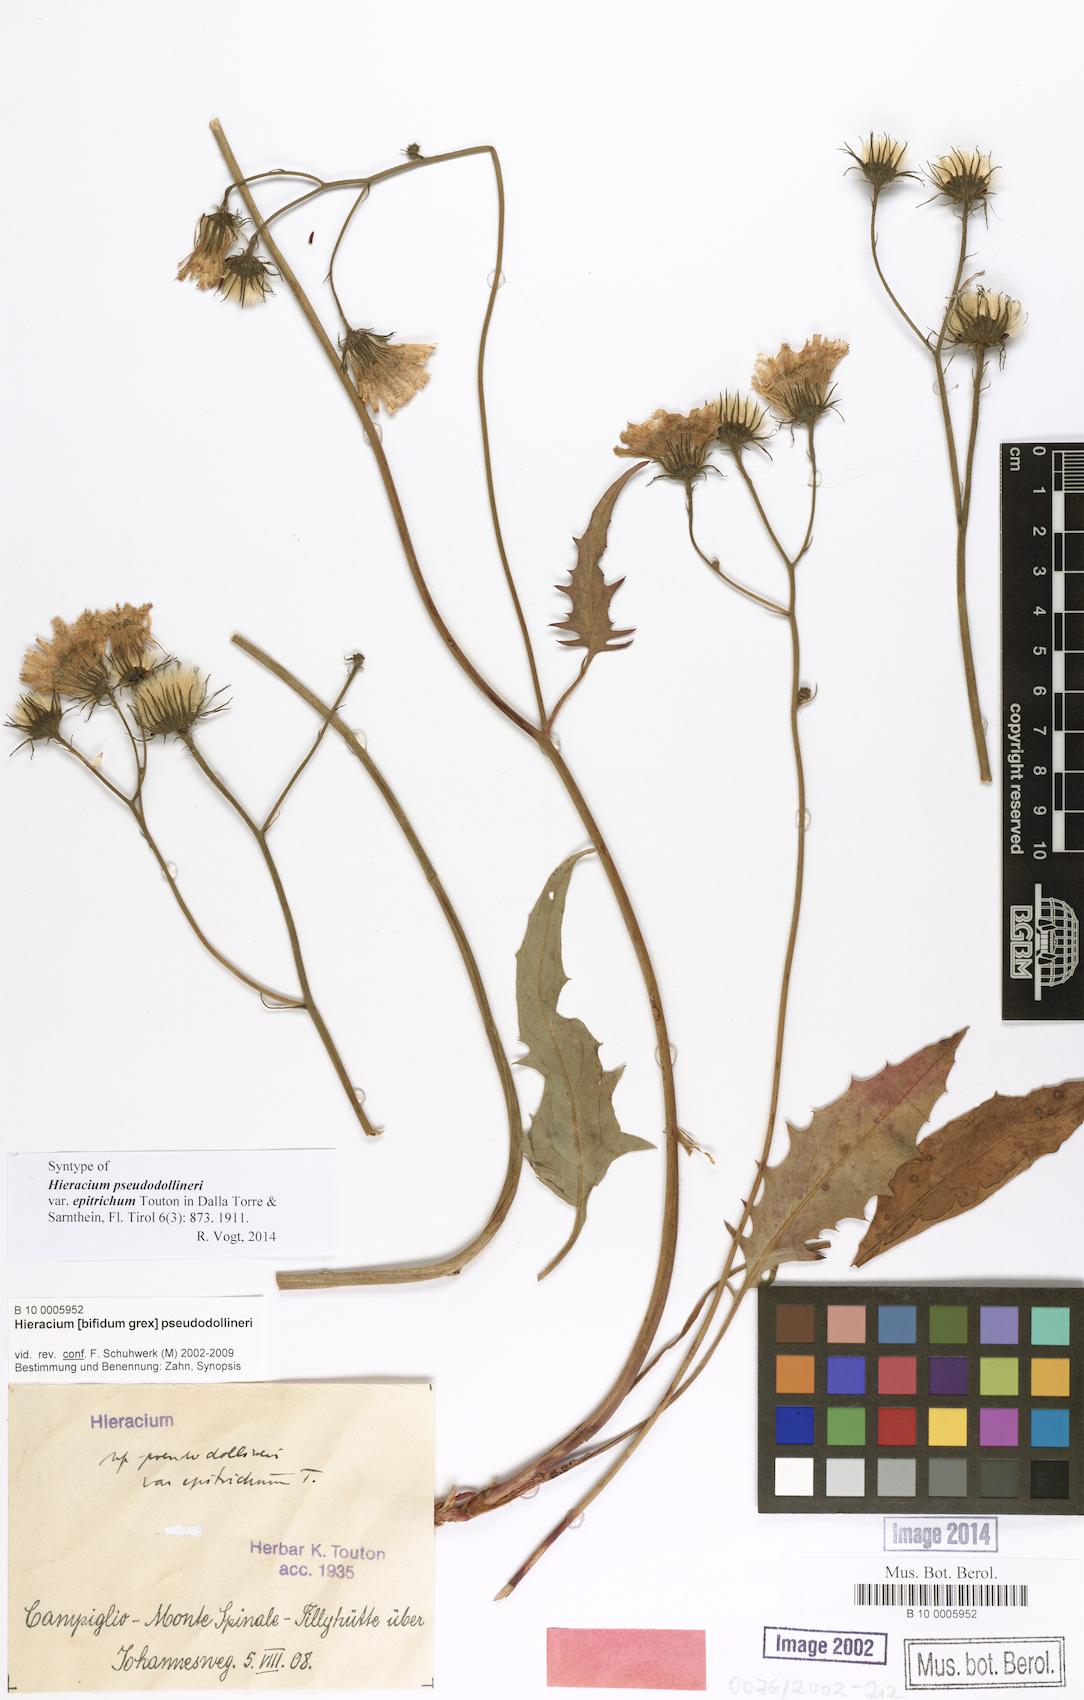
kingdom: Plantae
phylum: Tracheophyta
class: Magnoliopsida
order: Asterales
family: Asteraceae
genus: Hieracium
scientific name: Hieracium bifidum
